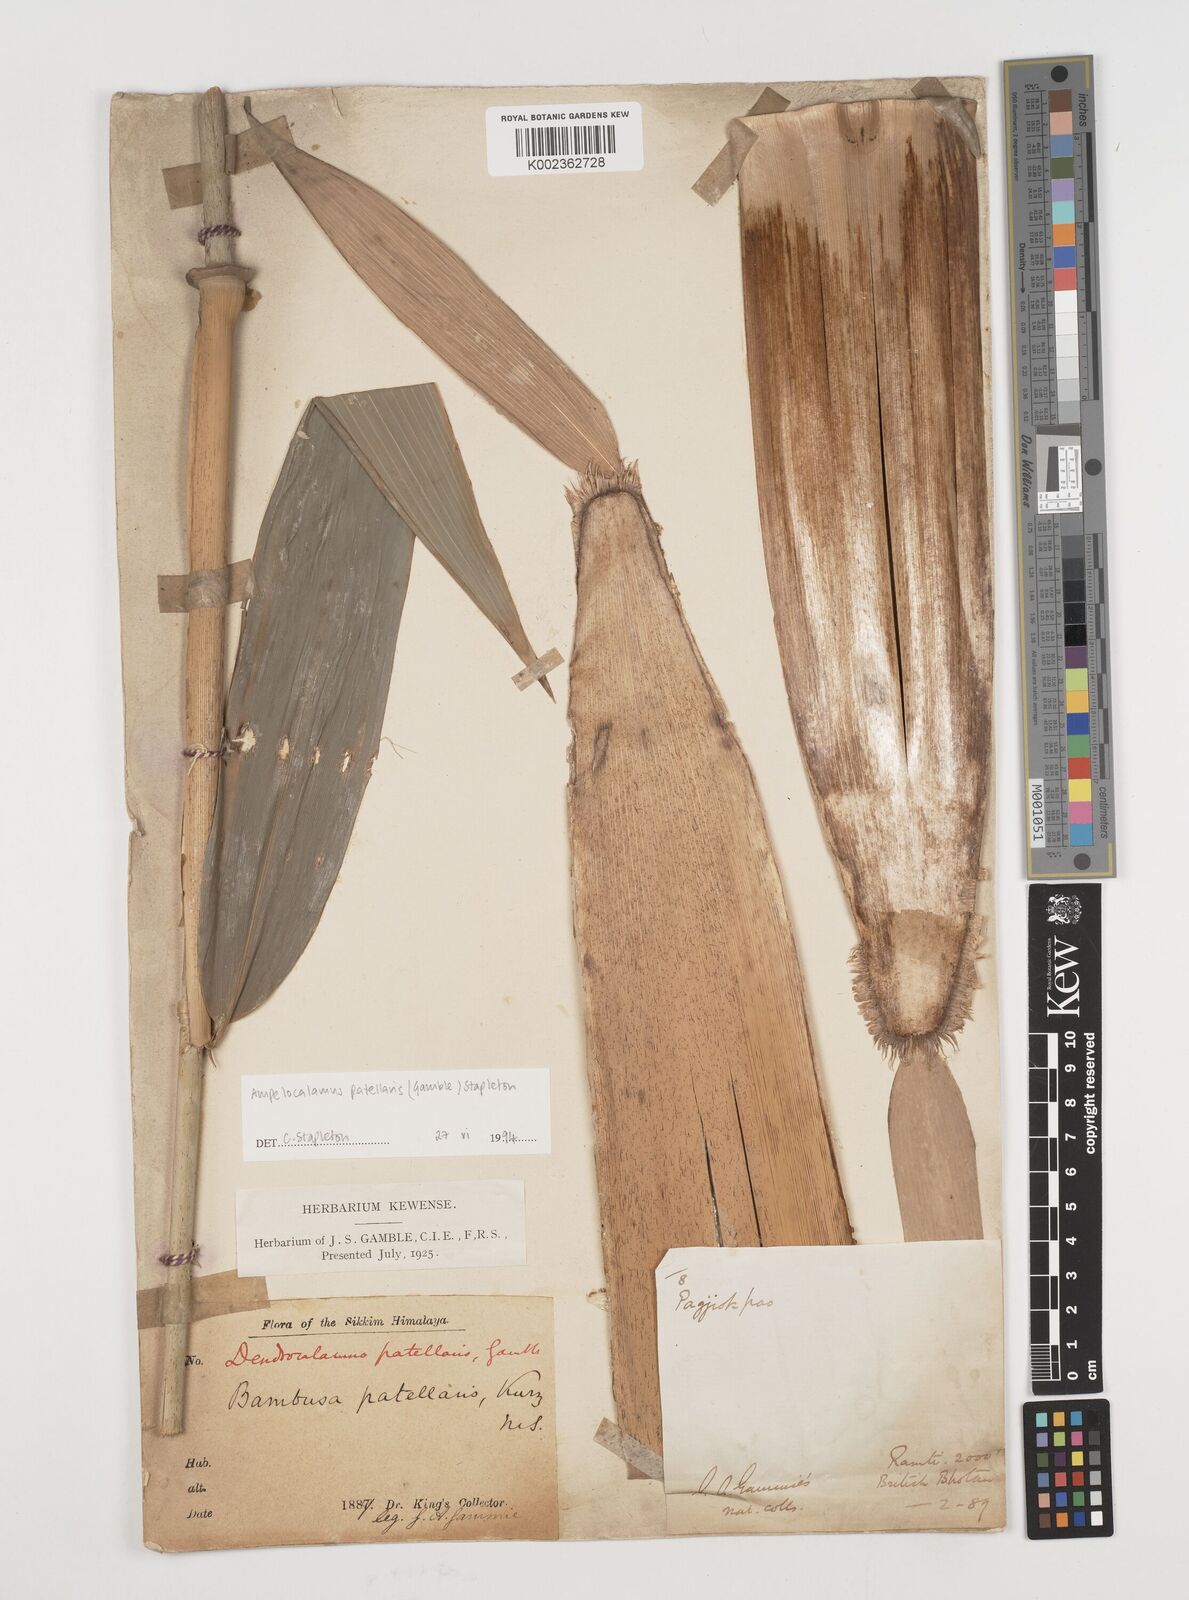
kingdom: Plantae
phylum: Tracheophyta
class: Liliopsida
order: Poales
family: Poaceae
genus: Ampelocalamus
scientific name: Ampelocalamus patellaris
